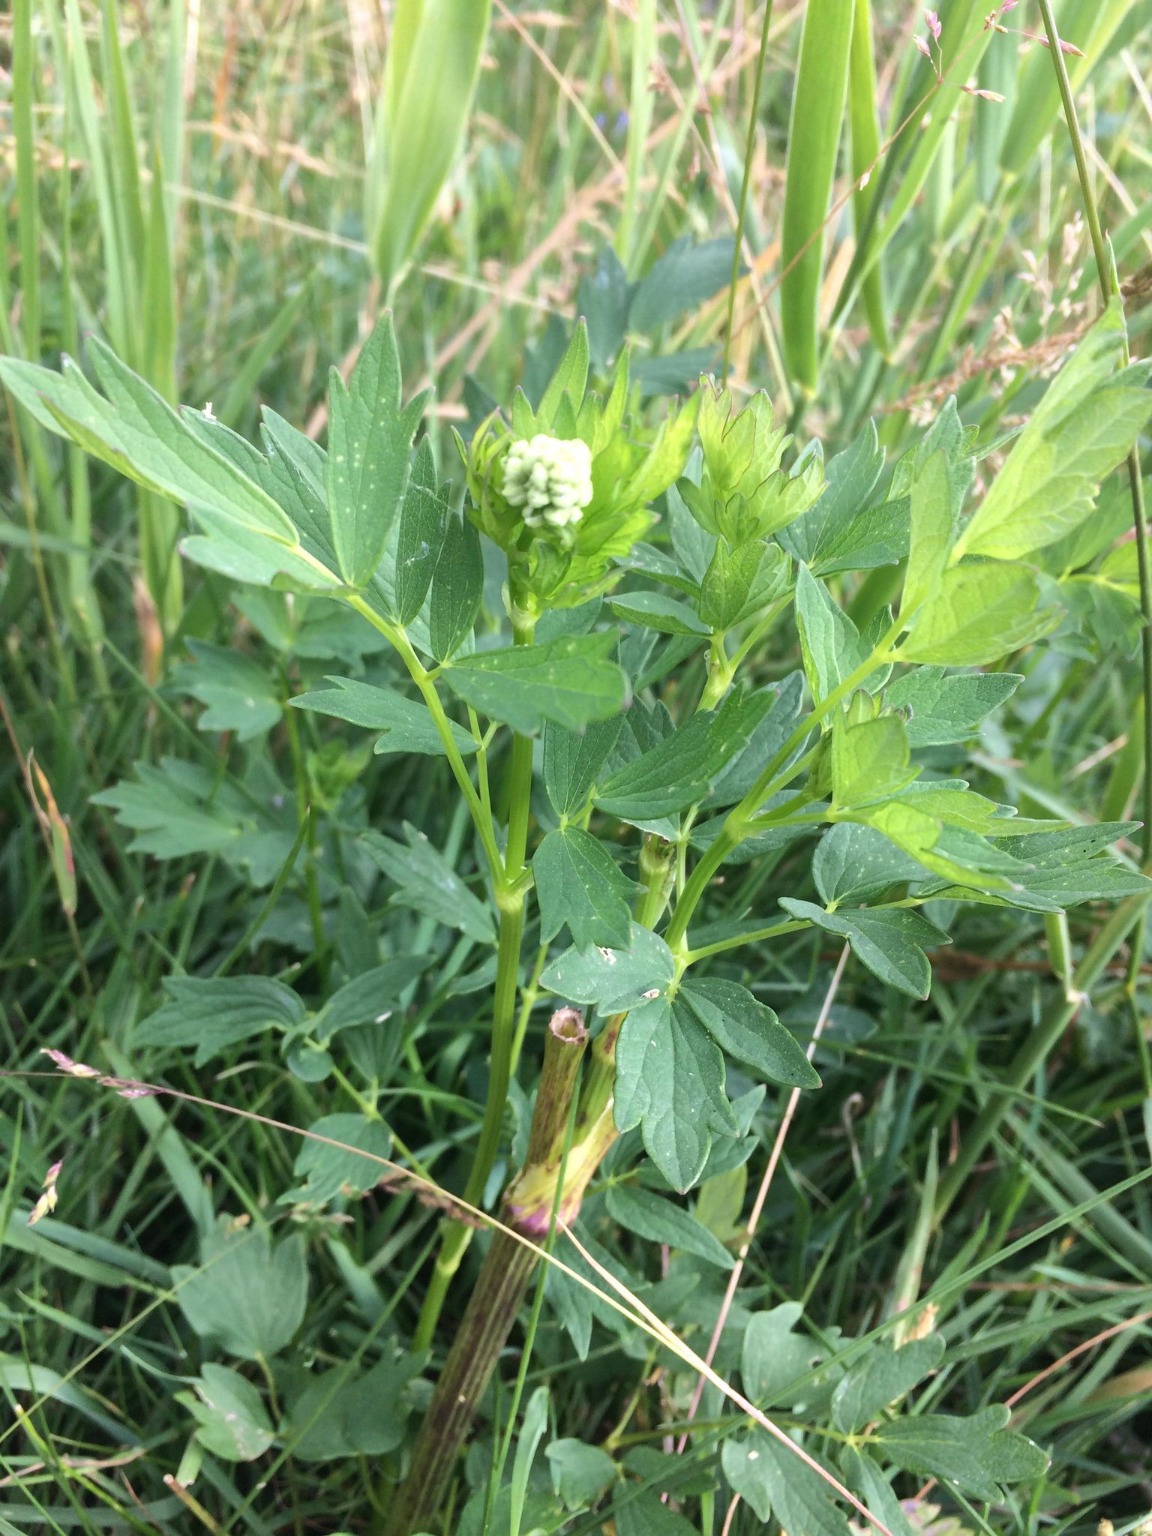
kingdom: Plantae
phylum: Tracheophyta
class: Magnoliopsida
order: Ranunculales
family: Ranunculaceae
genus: Thalictrum
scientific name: Thalictrum simplex
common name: Rank frøstjerne
